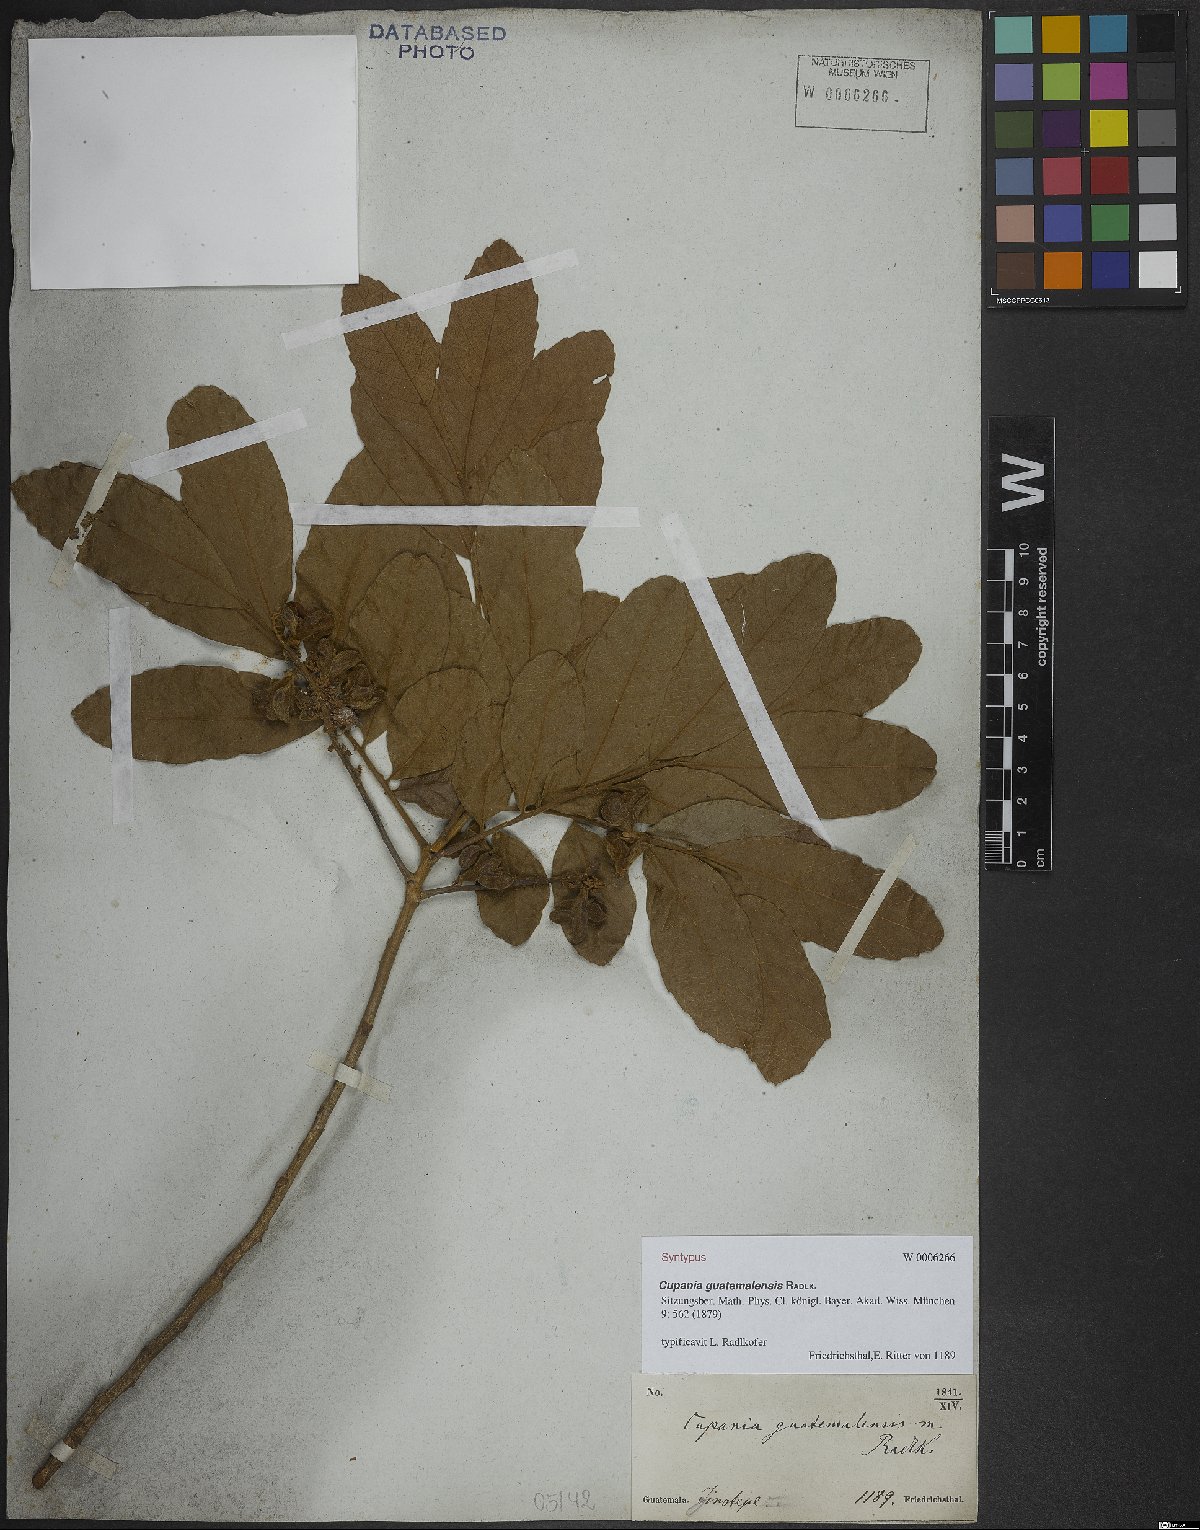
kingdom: Plantae
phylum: Tracheophyta
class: Magnoliopsida
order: Sapindales
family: Sapindaceae
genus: Cupania
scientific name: Cupania guatemalensis
